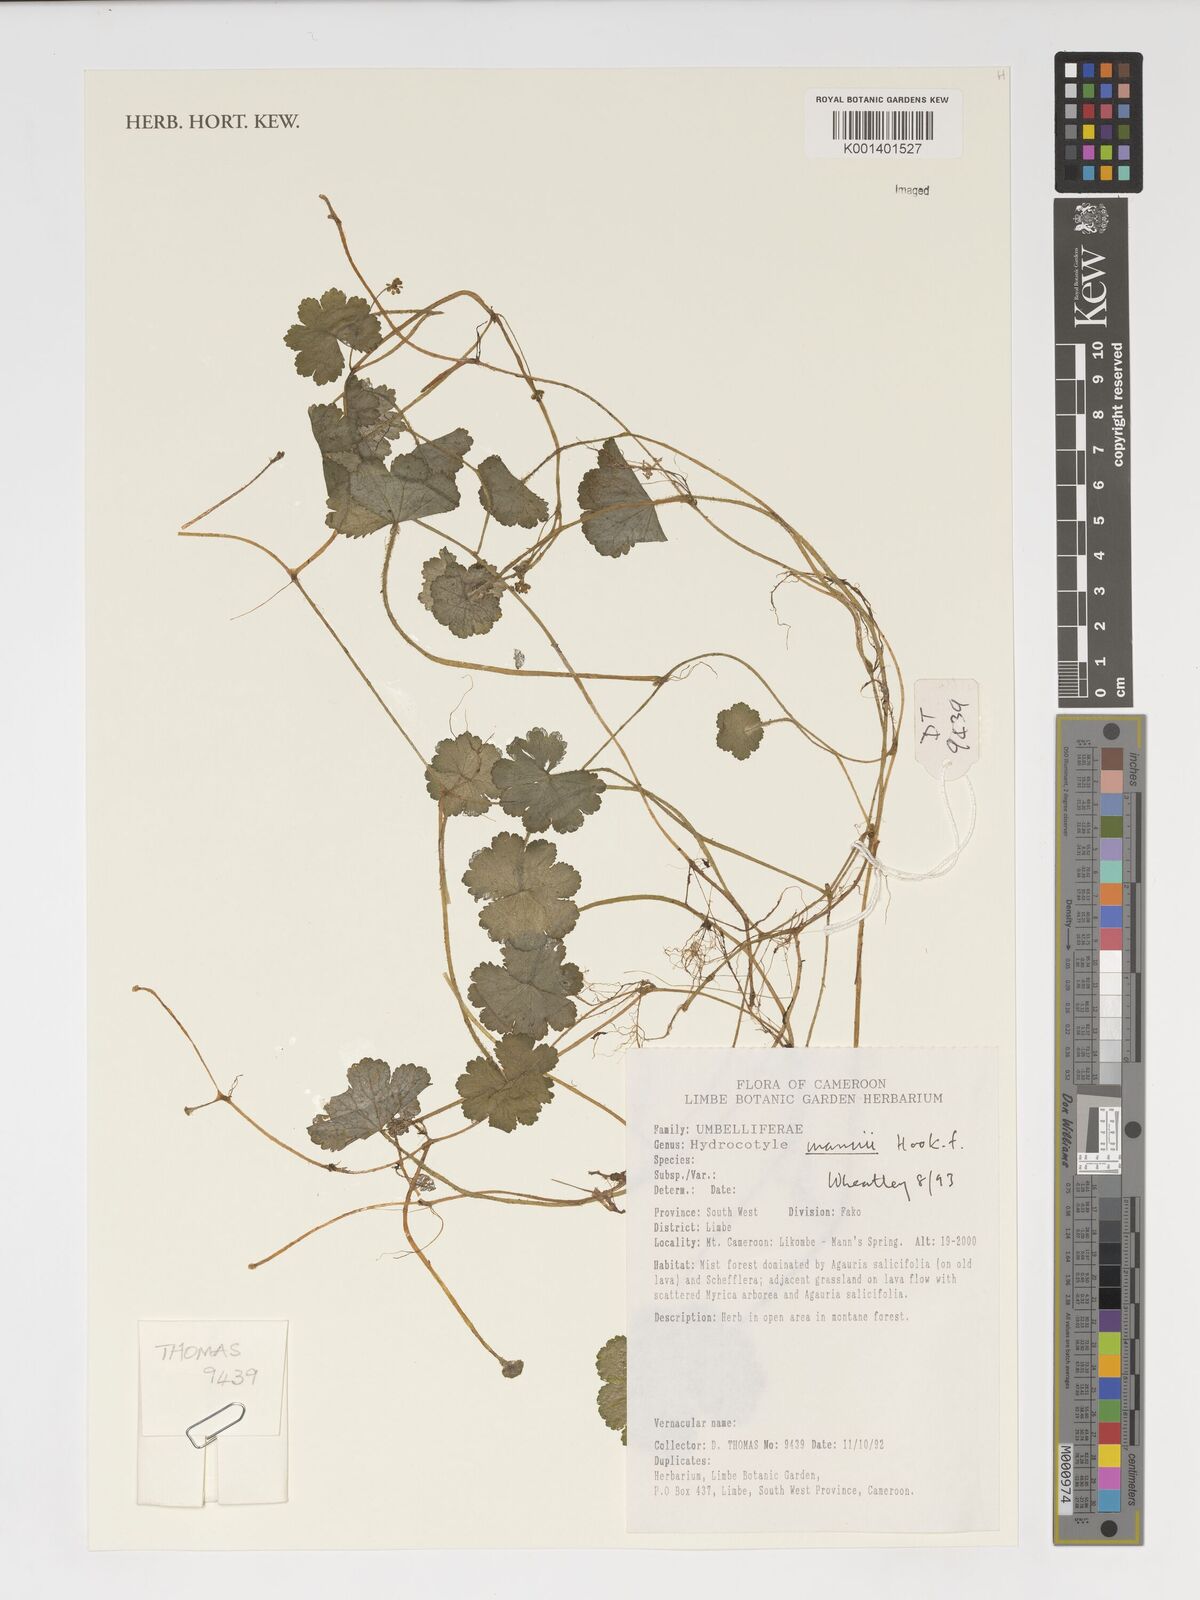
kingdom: Plantae
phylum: Tracheophyta
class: Magnoliopsida
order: Apiales
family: Araliaceae
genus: Hydrocotyle
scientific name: Hydrocotyle mannii
